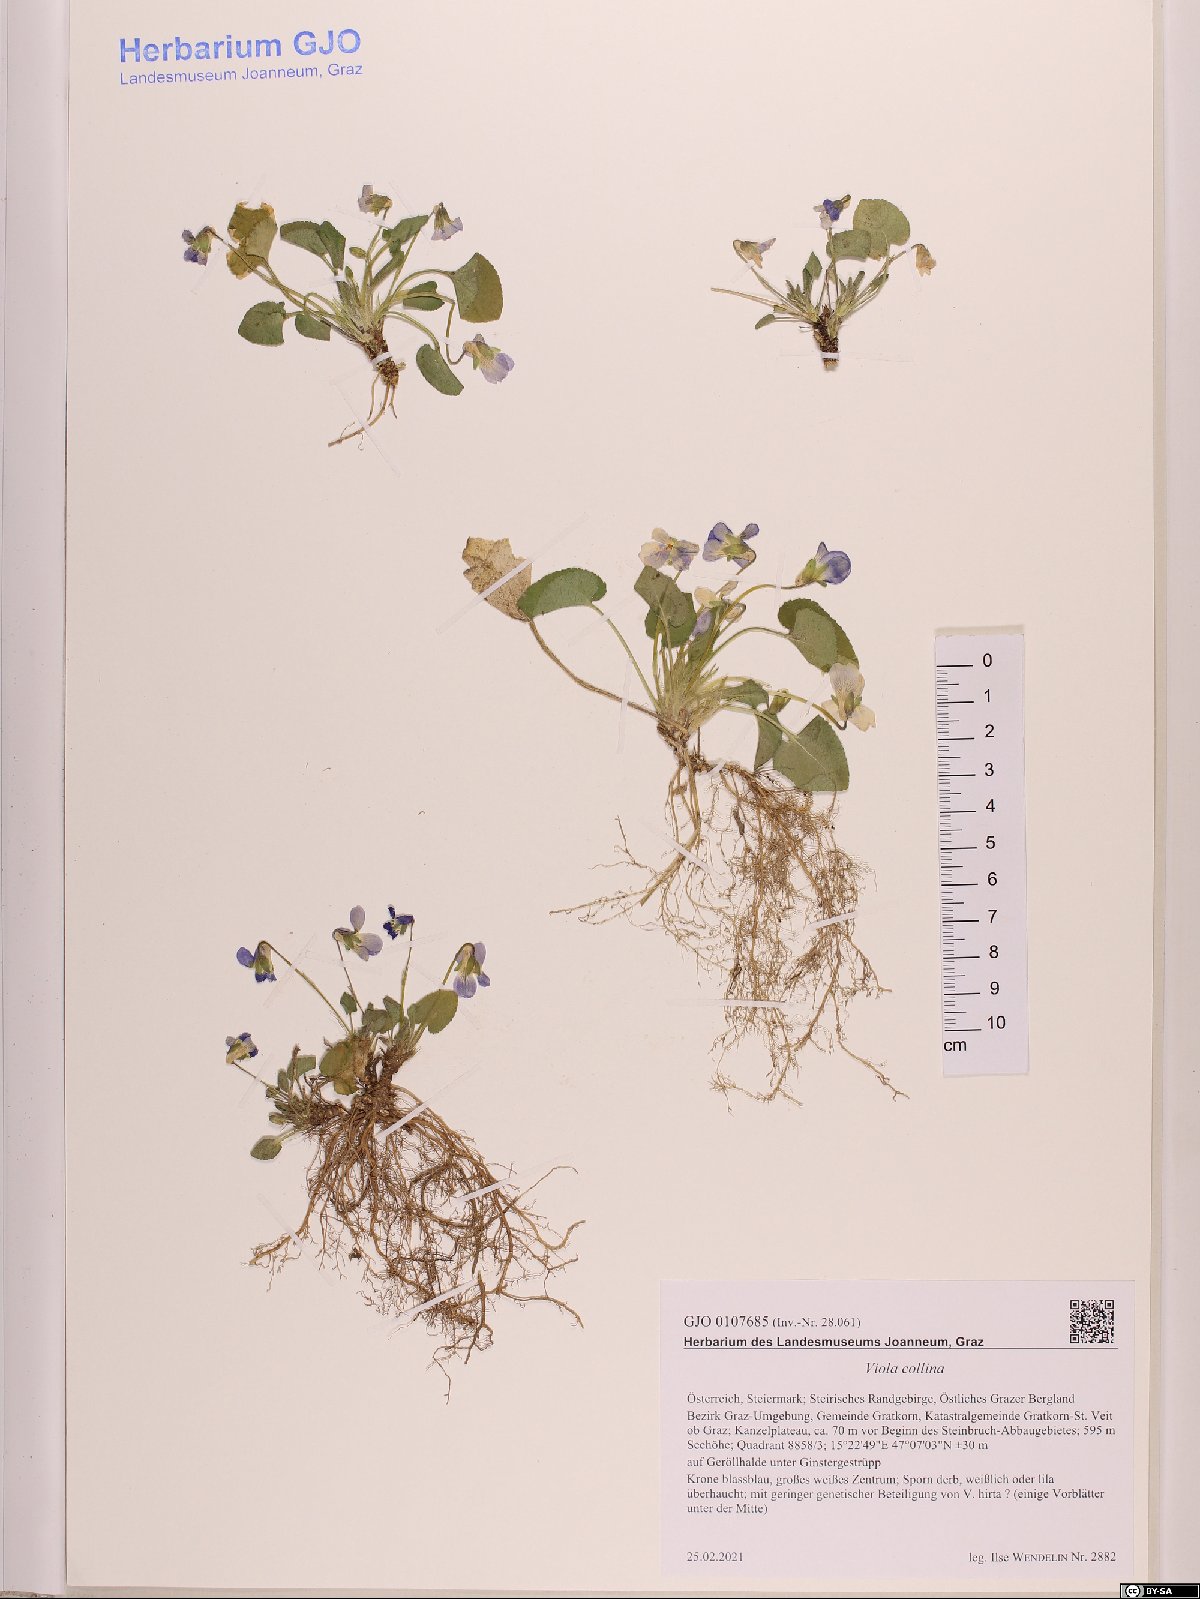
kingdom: Plantae
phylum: Tracheophyta
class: Magnoliopsida
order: Malpighiales
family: Violaceae
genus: Viola
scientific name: Viola collina
